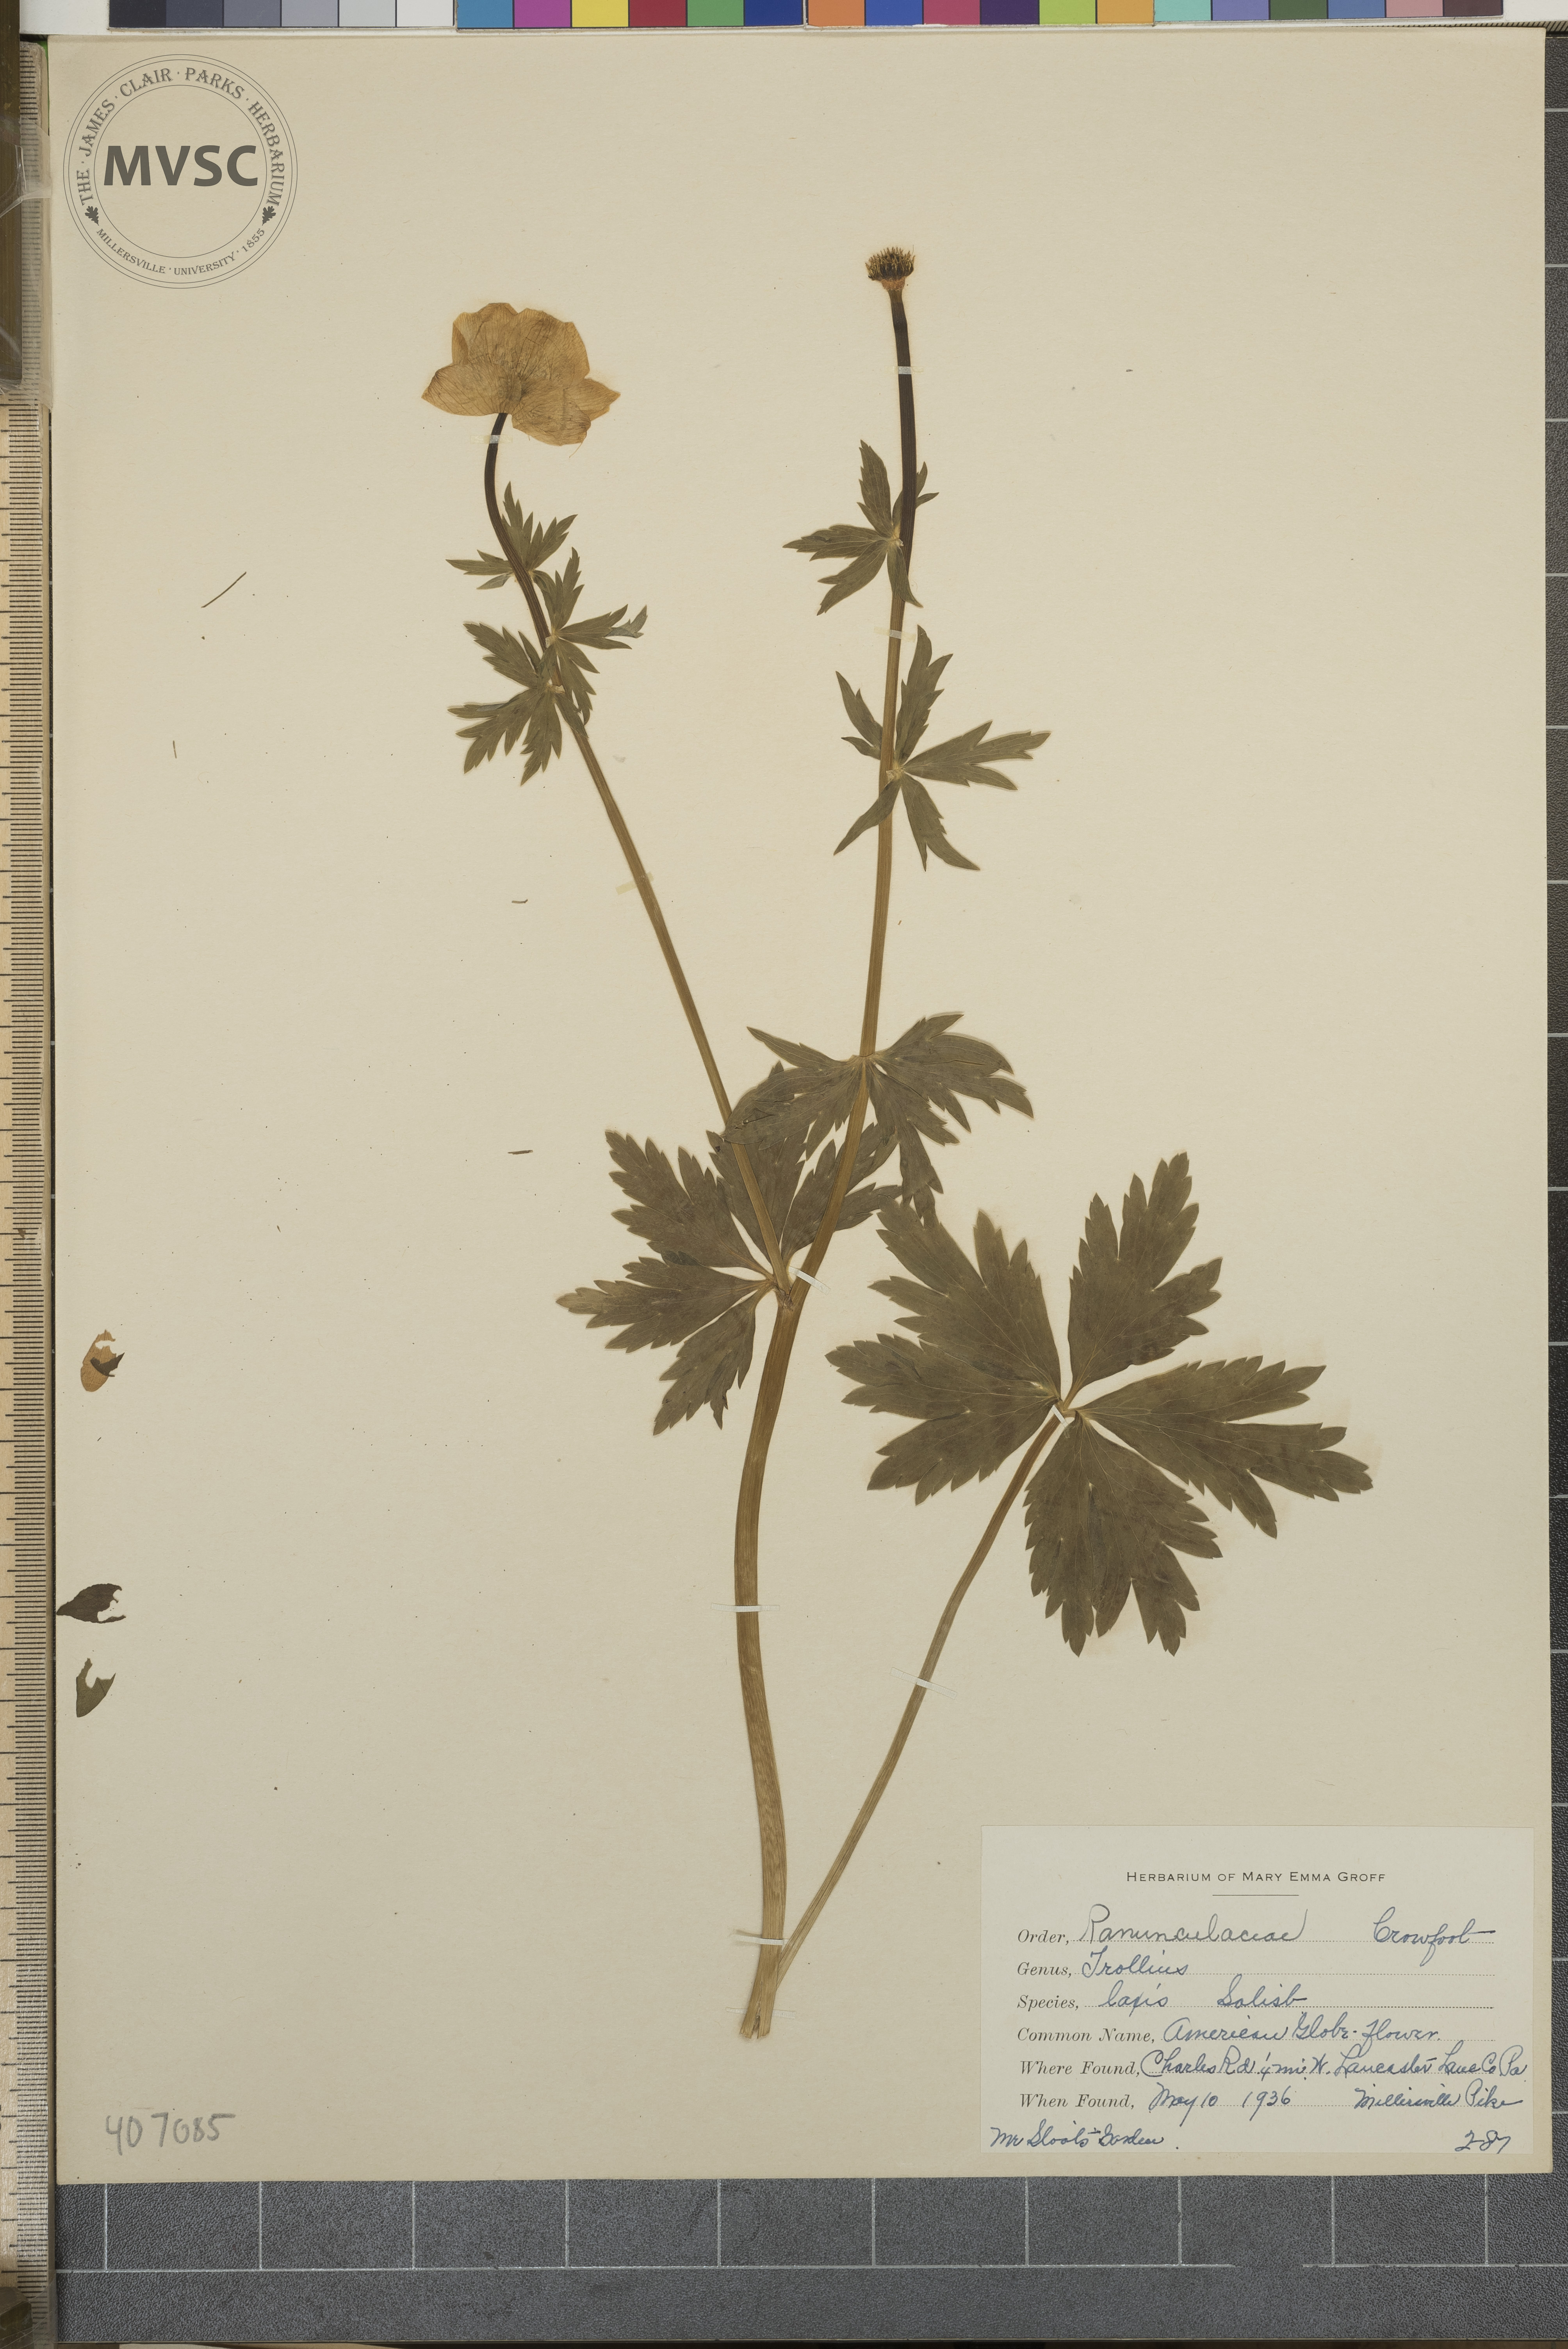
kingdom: Plantae
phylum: Tracheophyta
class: Magnoliopsida
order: Ranunculales
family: Ranunculaceae
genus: Trollius
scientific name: Trollius laxus
